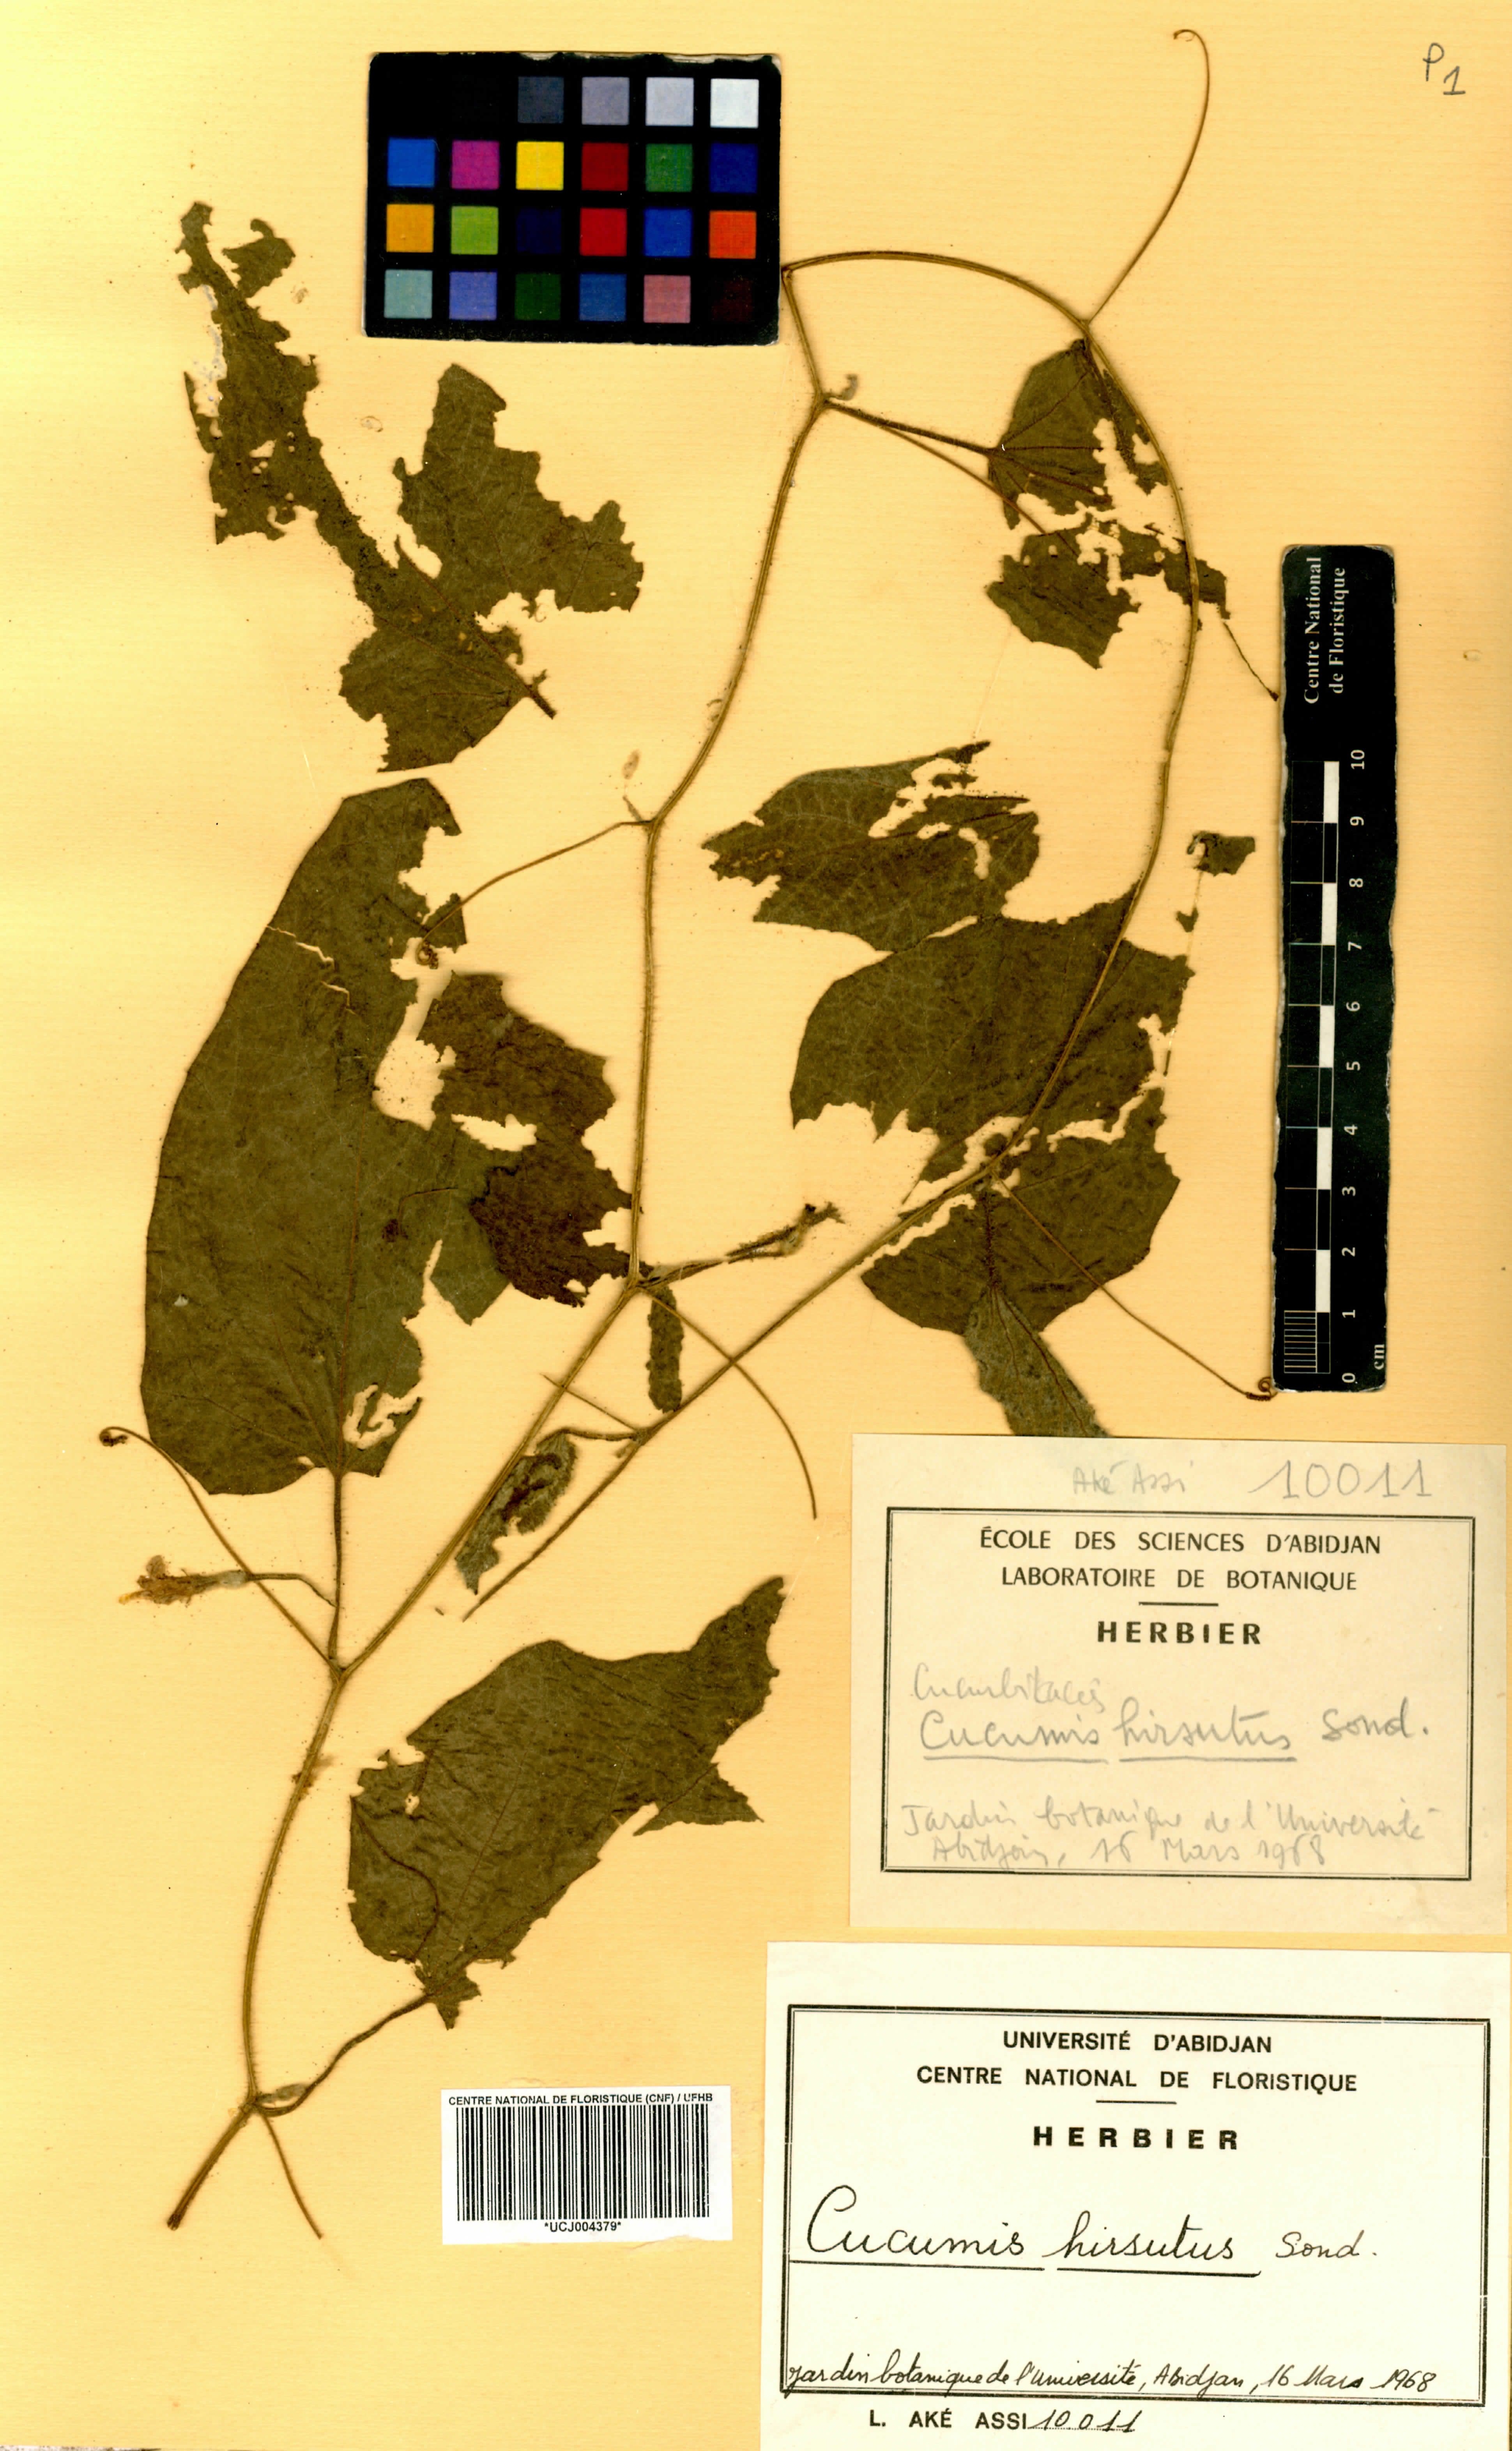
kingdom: Plantae
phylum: Tracheophyta
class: Magnoliopsida
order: Cucurbitales
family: Cucurbitaceae
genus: Cucumis
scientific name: Cucumis hirsutus
